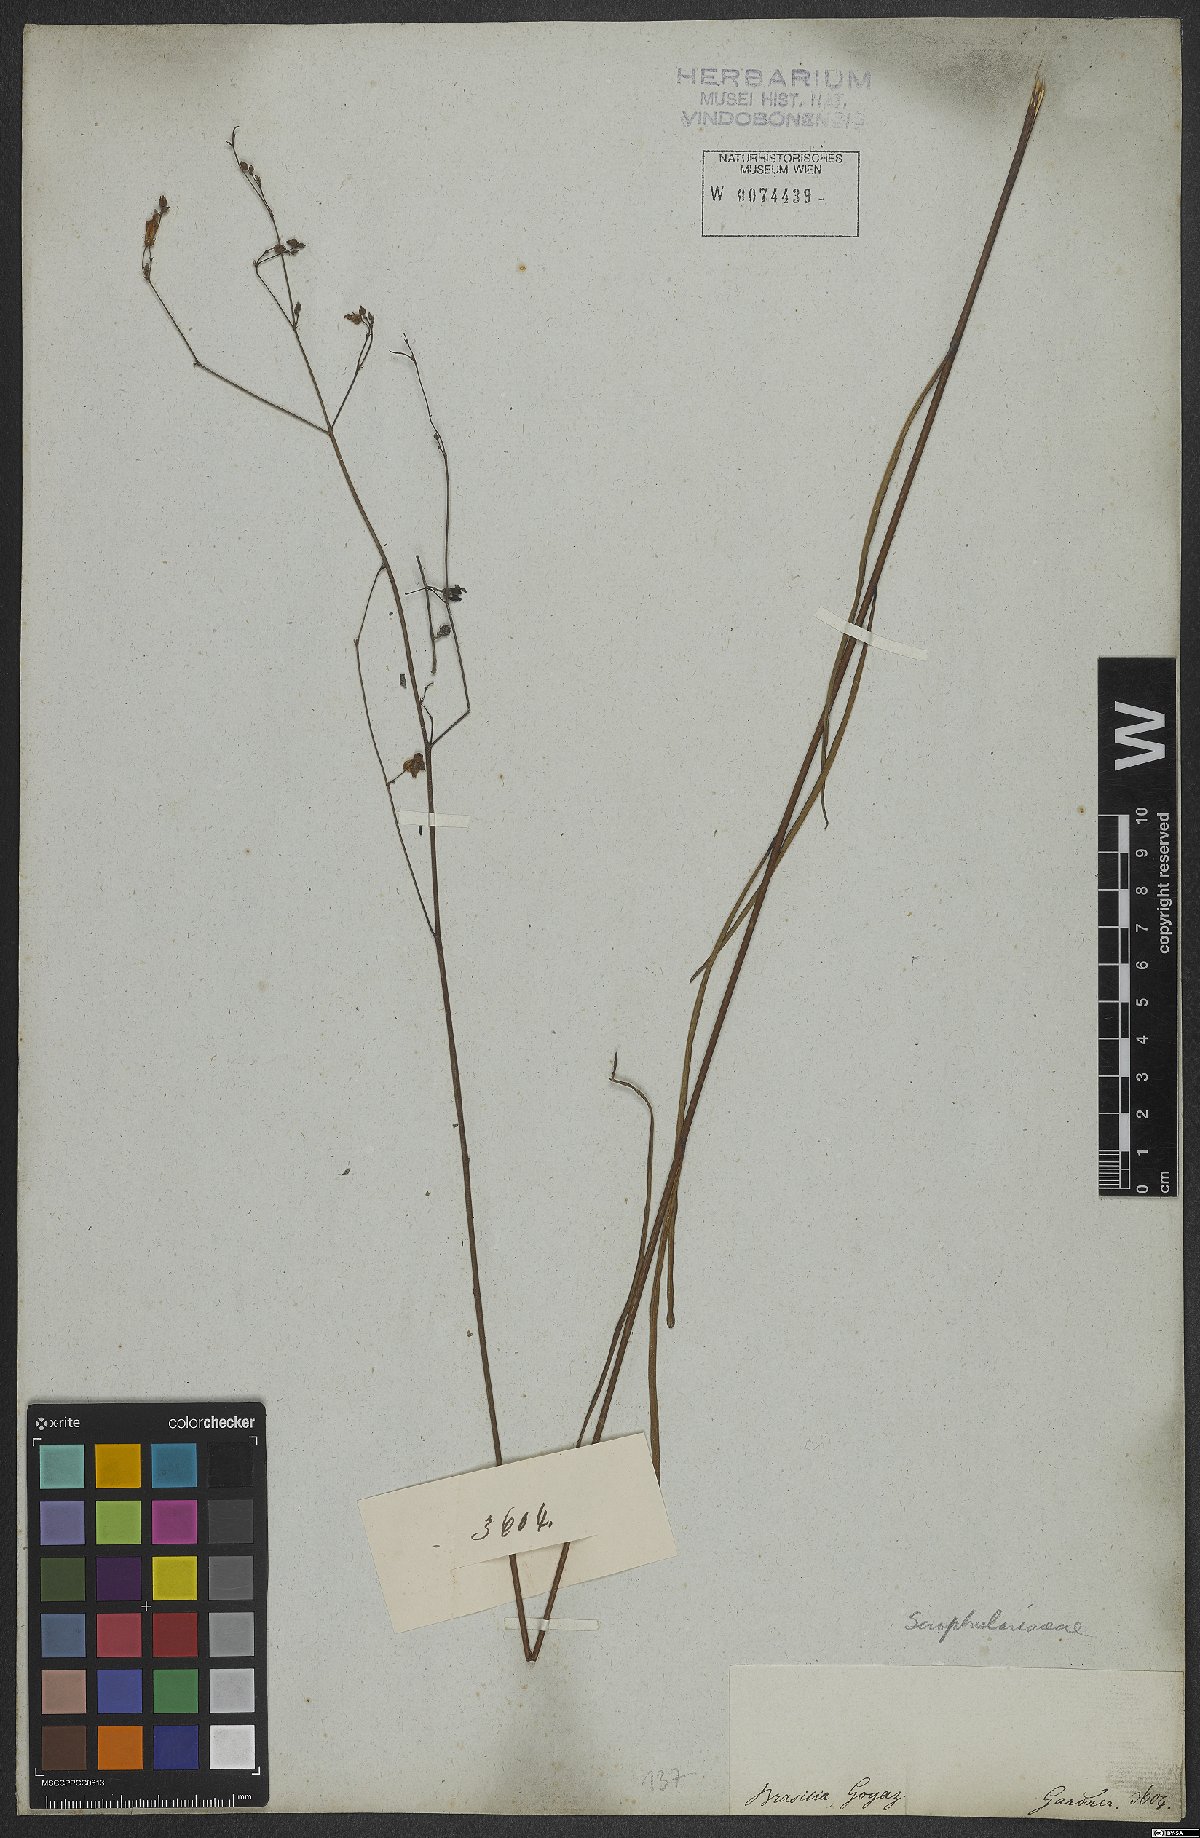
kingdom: Plantae
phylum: Tracheophyta
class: Magnoliopsida
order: Lamiales
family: Scrophulariaceae
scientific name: Scrophulariaceae
